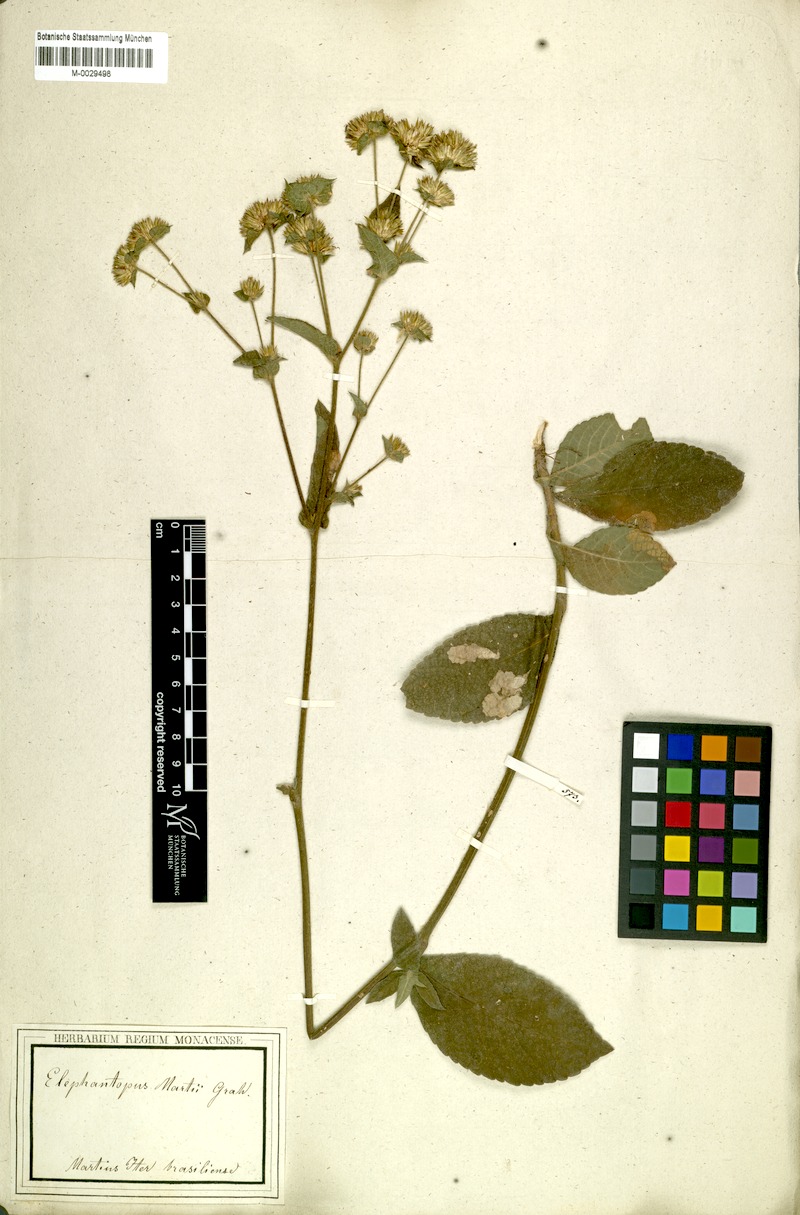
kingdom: Plantae
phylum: Tracheophyta
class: Magnoliopsida
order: Asterales
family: Asteraceae
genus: Elephantopus
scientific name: Elephantopus mollis
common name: Soft elephantsfoot
